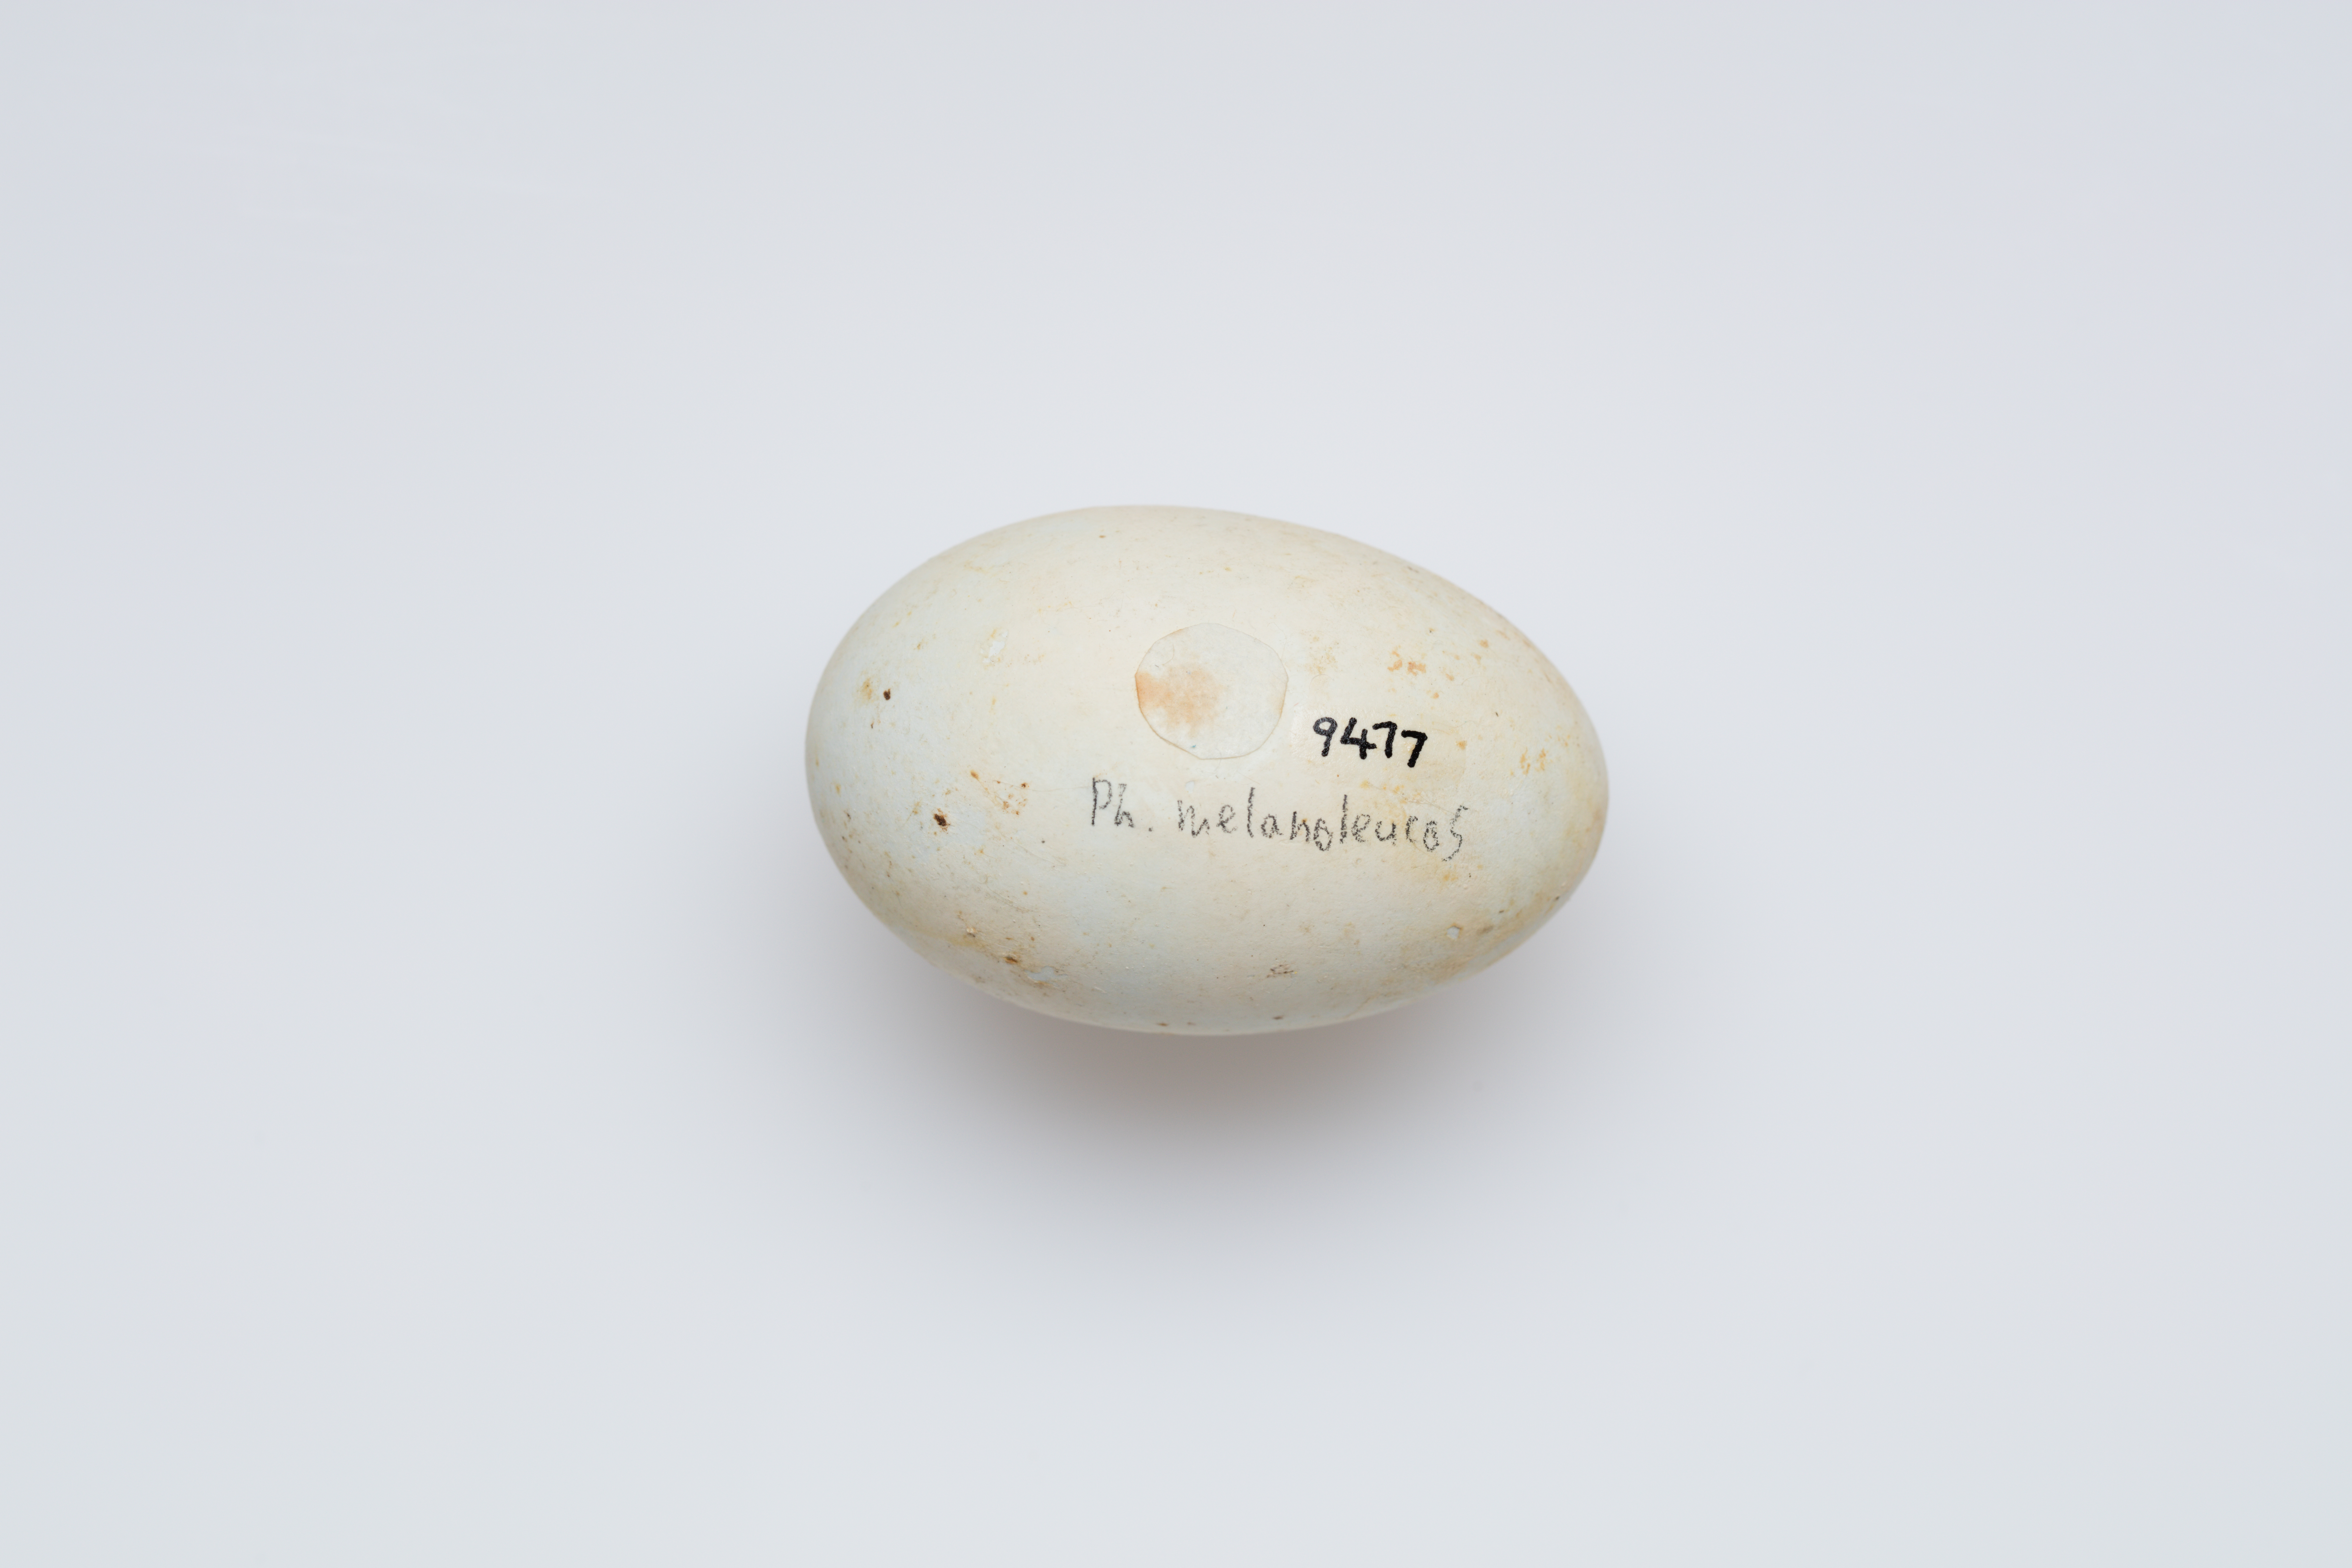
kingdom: Animalia
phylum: Chordata
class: Aves
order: Suliformes
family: Phalacrocoracidae
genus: Microcarbo
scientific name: Microcarbo melanoleucos
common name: Little pied cormorant
